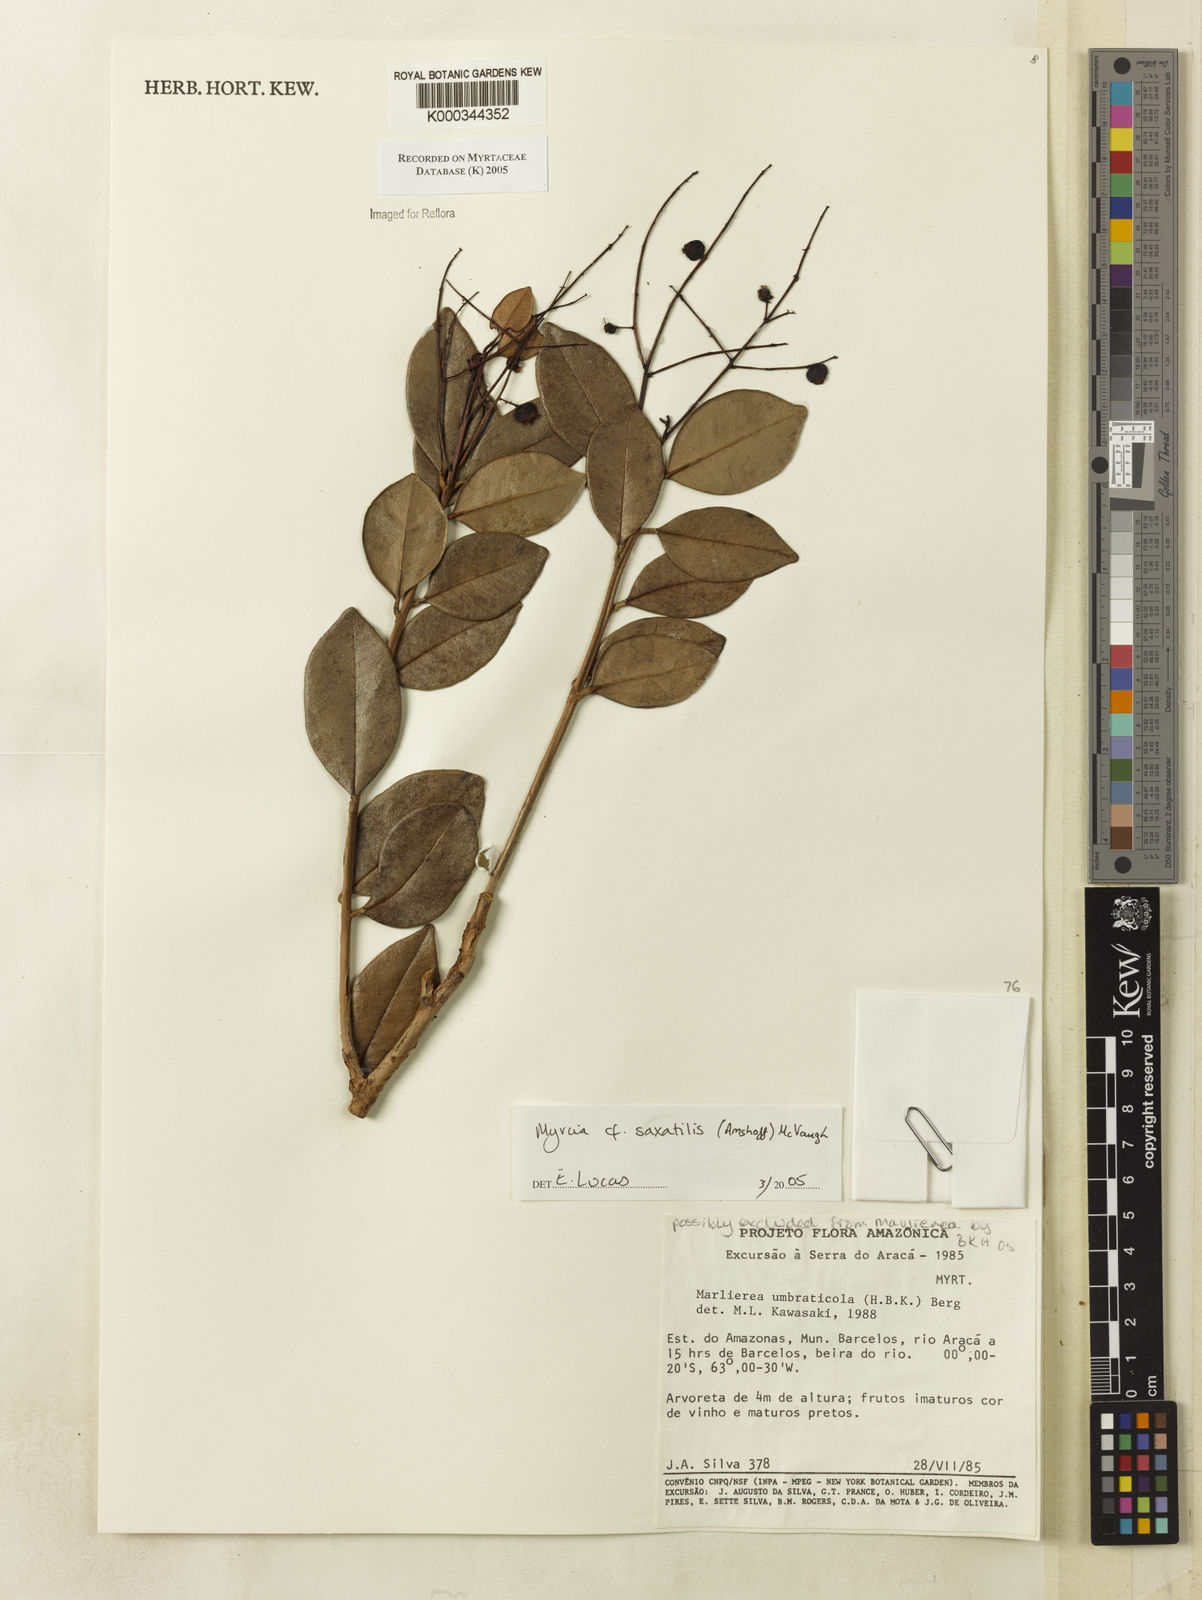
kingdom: Plantae
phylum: Tracheophyta
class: Magnoliopsida
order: Myrtales
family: Myrtaceae
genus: Myrcia
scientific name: Myrcia saxatilis
